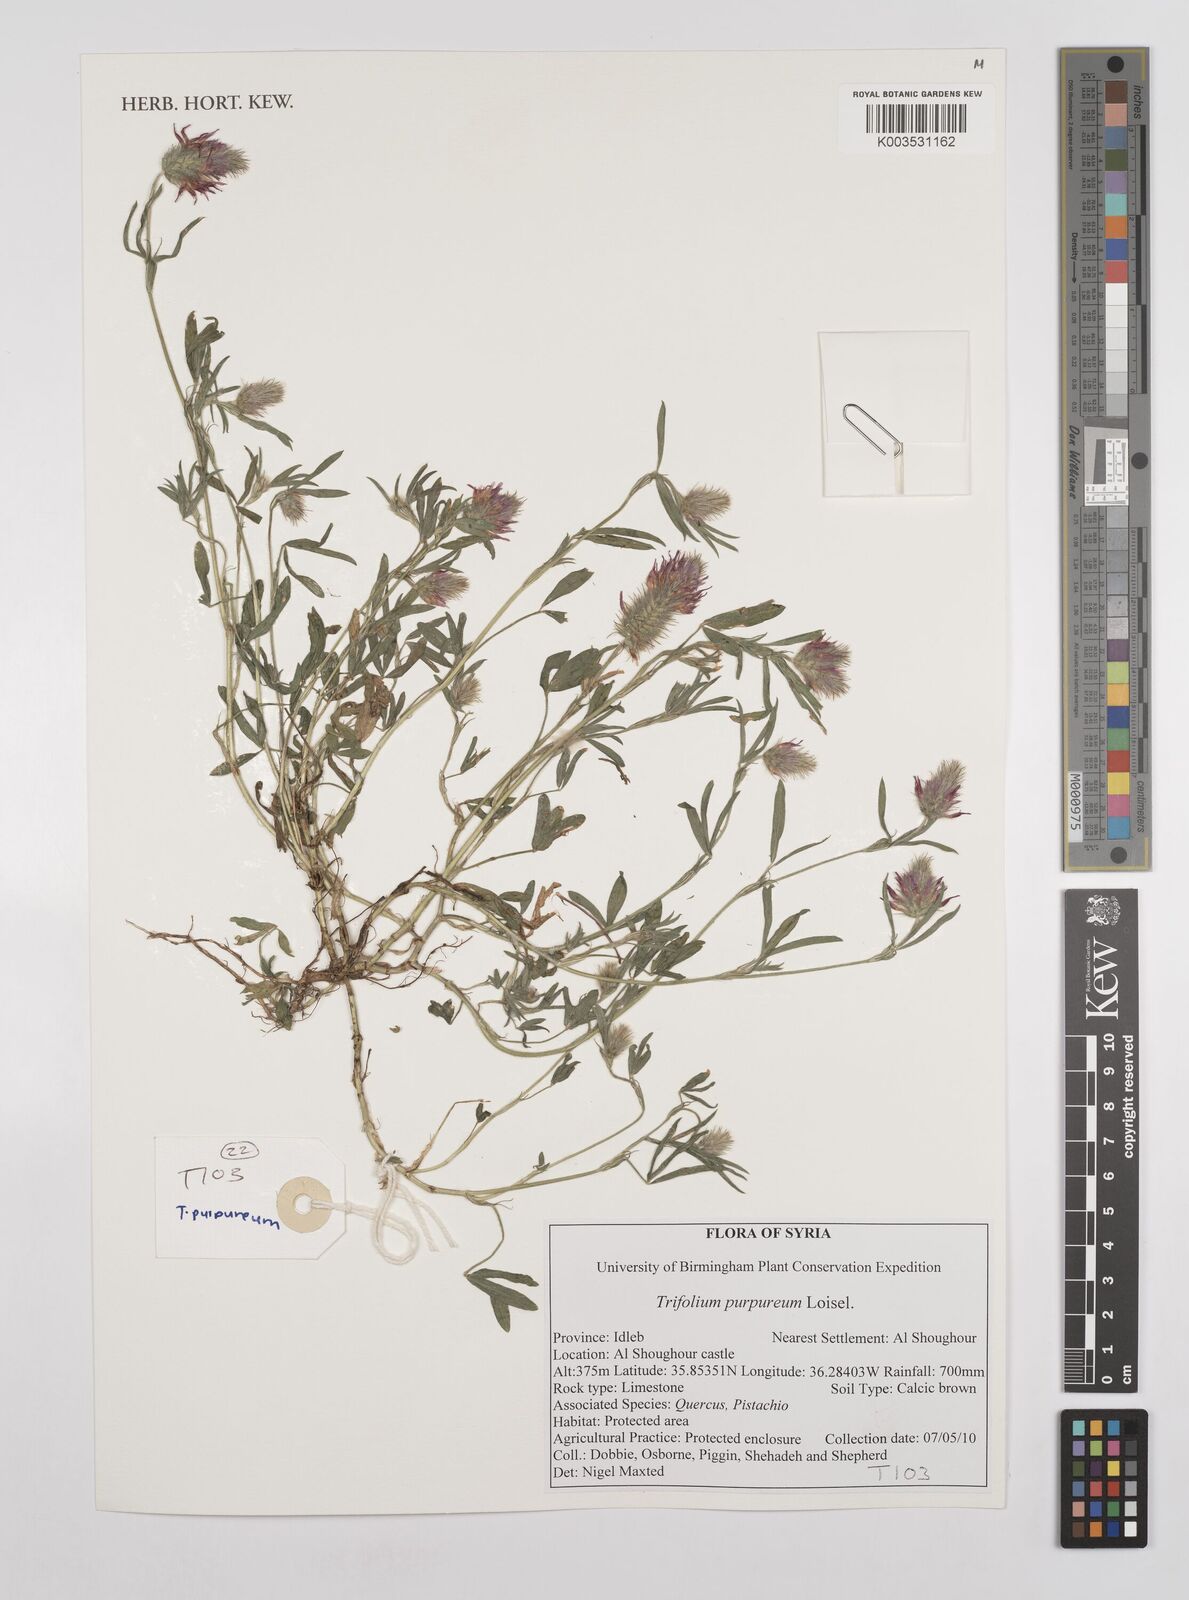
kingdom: Plantae
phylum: Tracheophyta
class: Magnoliopsida
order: Fabales
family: Fabaceae
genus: Trifolium
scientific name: Trifolium purpureum
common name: Purple clover
